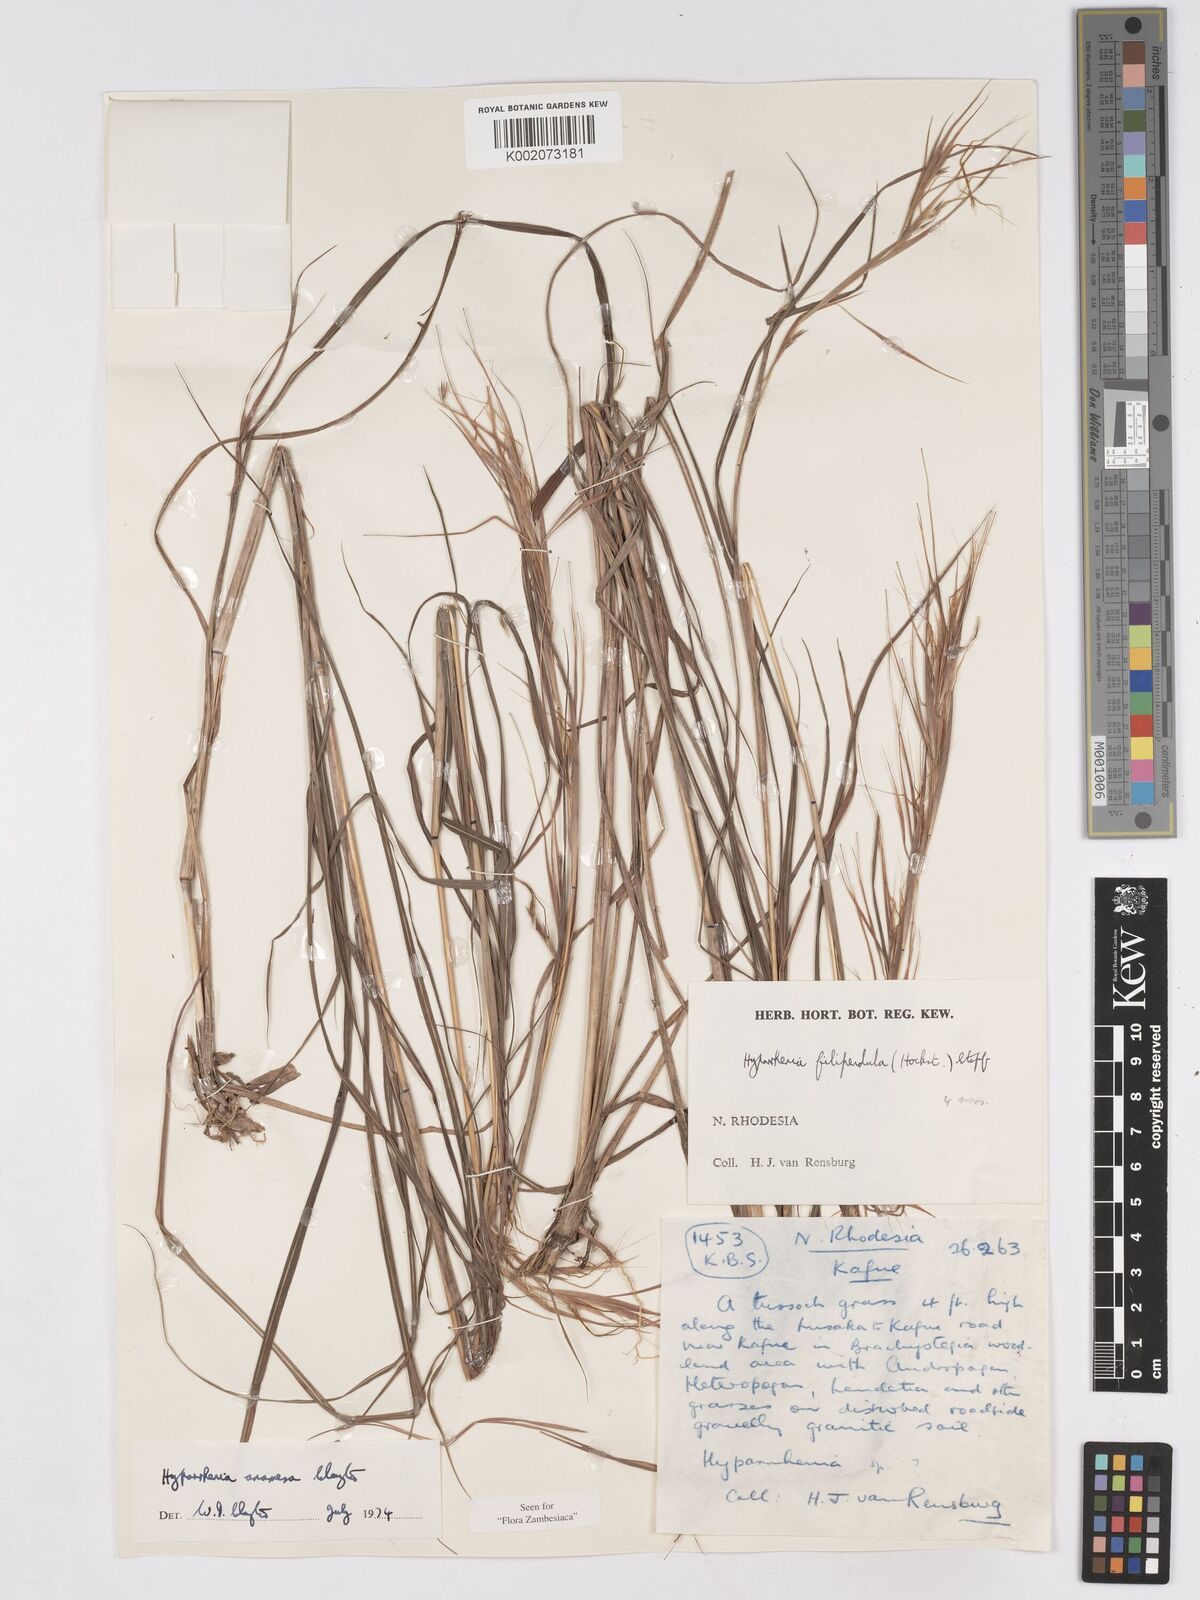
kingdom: Plantae
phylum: Tracheophyta
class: Liliopsida
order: Poales
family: Poaceae
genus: Hyparrhenia
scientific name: Hyparrhenia anamesa
